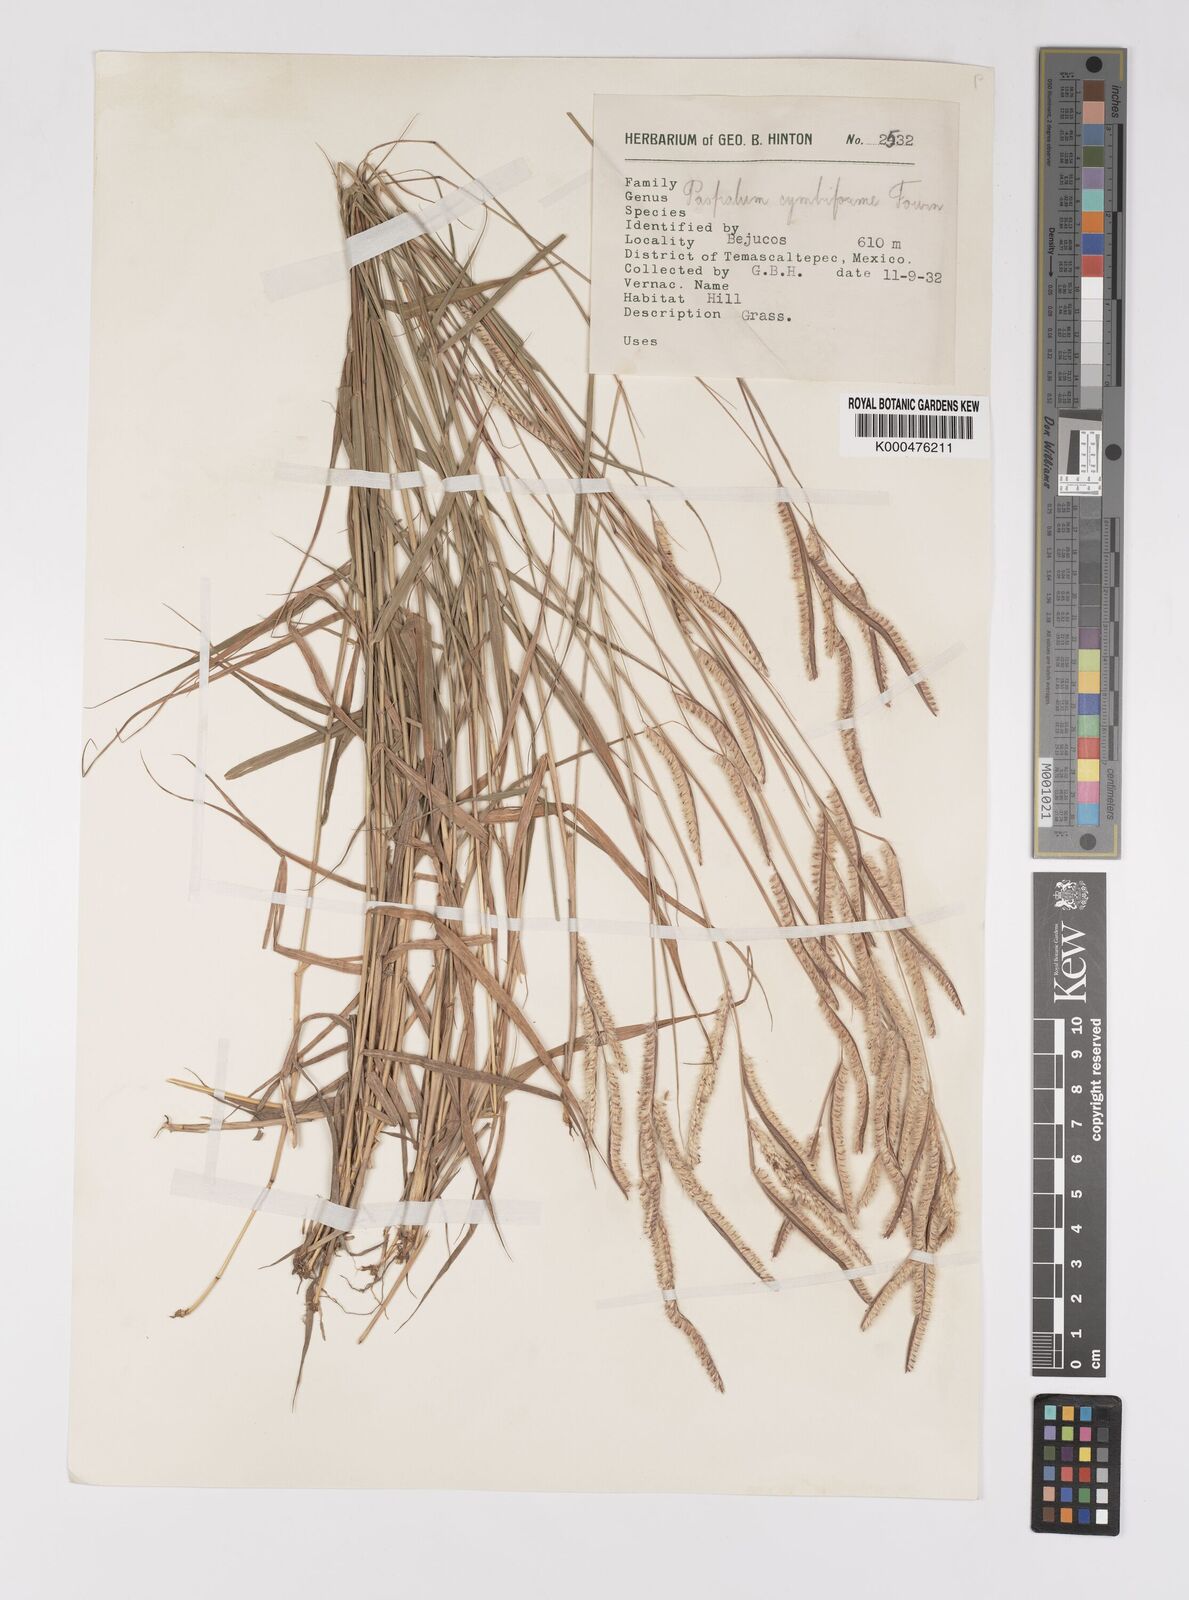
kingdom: Plantae
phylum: Tracheophyta
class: Liliopsida
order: Poales
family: Poaceae
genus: Paspalum
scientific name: Paspalum cymbiforme
